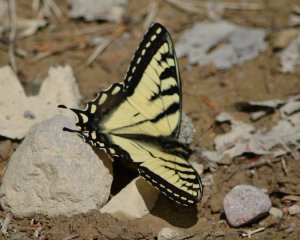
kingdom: Animalia
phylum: Arthropoda
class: Insecta
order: Lepidoptera
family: Papilionidae
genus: Pterourus
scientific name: Pterourus canadensis
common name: Canadian Tiger Swallowtail
